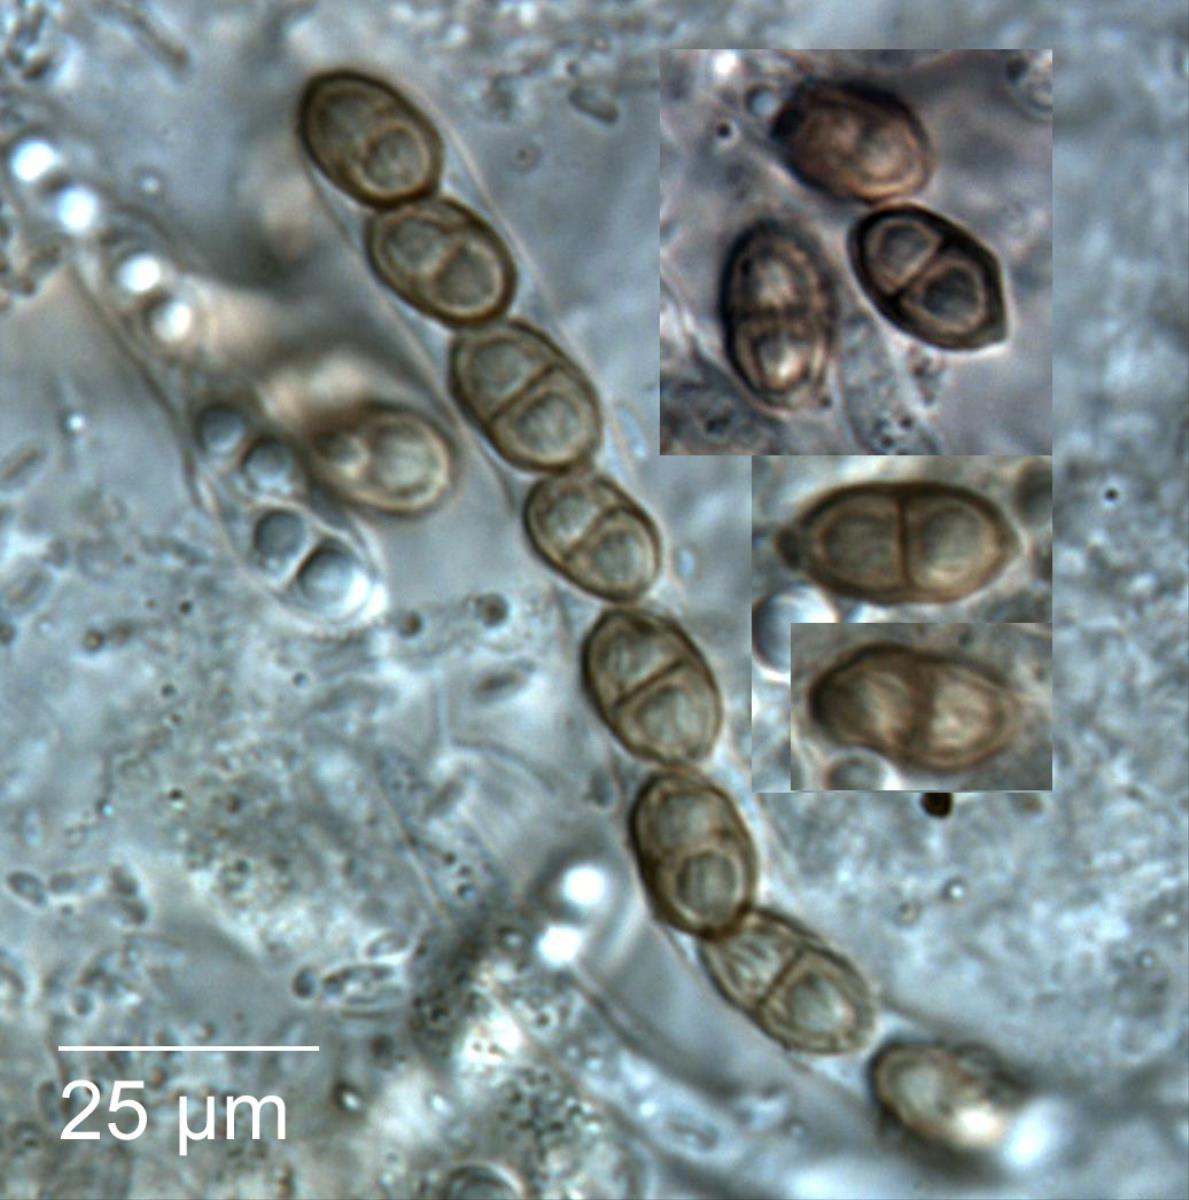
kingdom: Fungi
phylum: Ascomycota
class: Dothideomycetes
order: Valsariales
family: Valsariaceae
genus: Valsaria
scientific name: Valsaria insitiva
